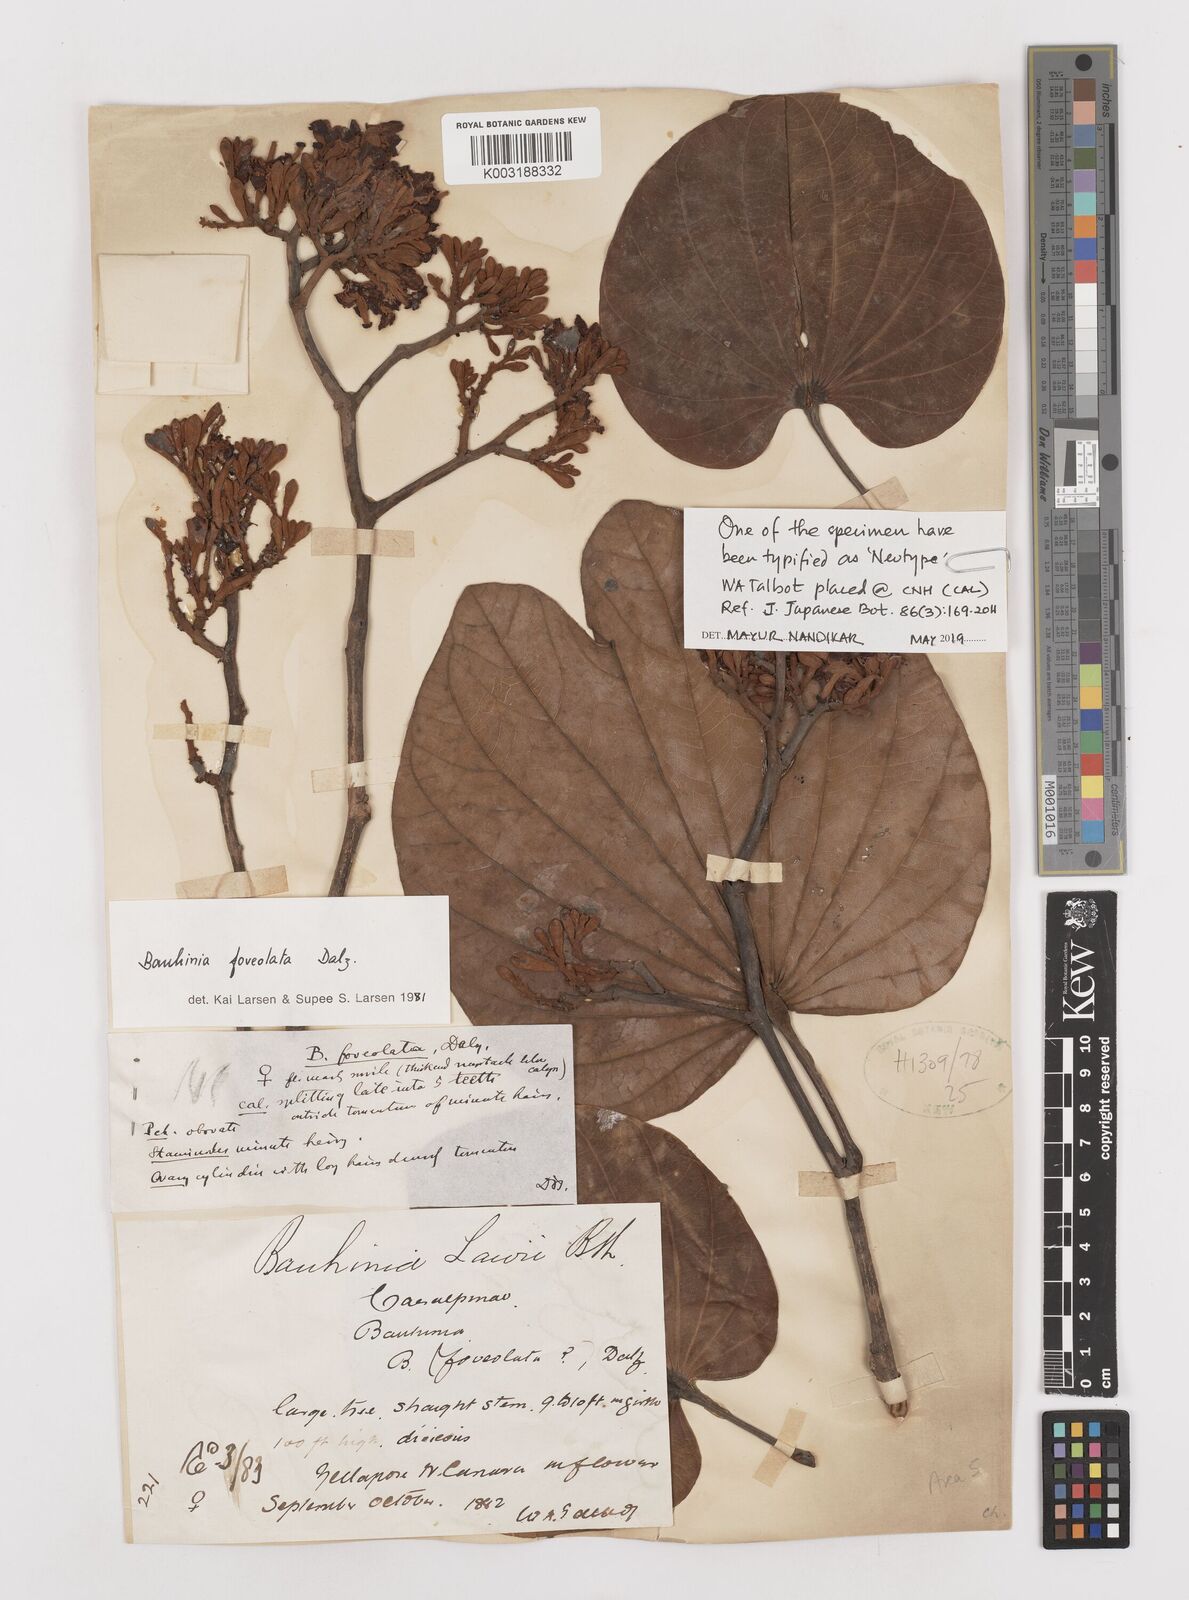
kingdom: Plantae
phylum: Tracheophyta
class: Magnoliopsida
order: Fabales
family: Fabaceae
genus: Piliostigma
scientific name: Piliostigma foveolatum
